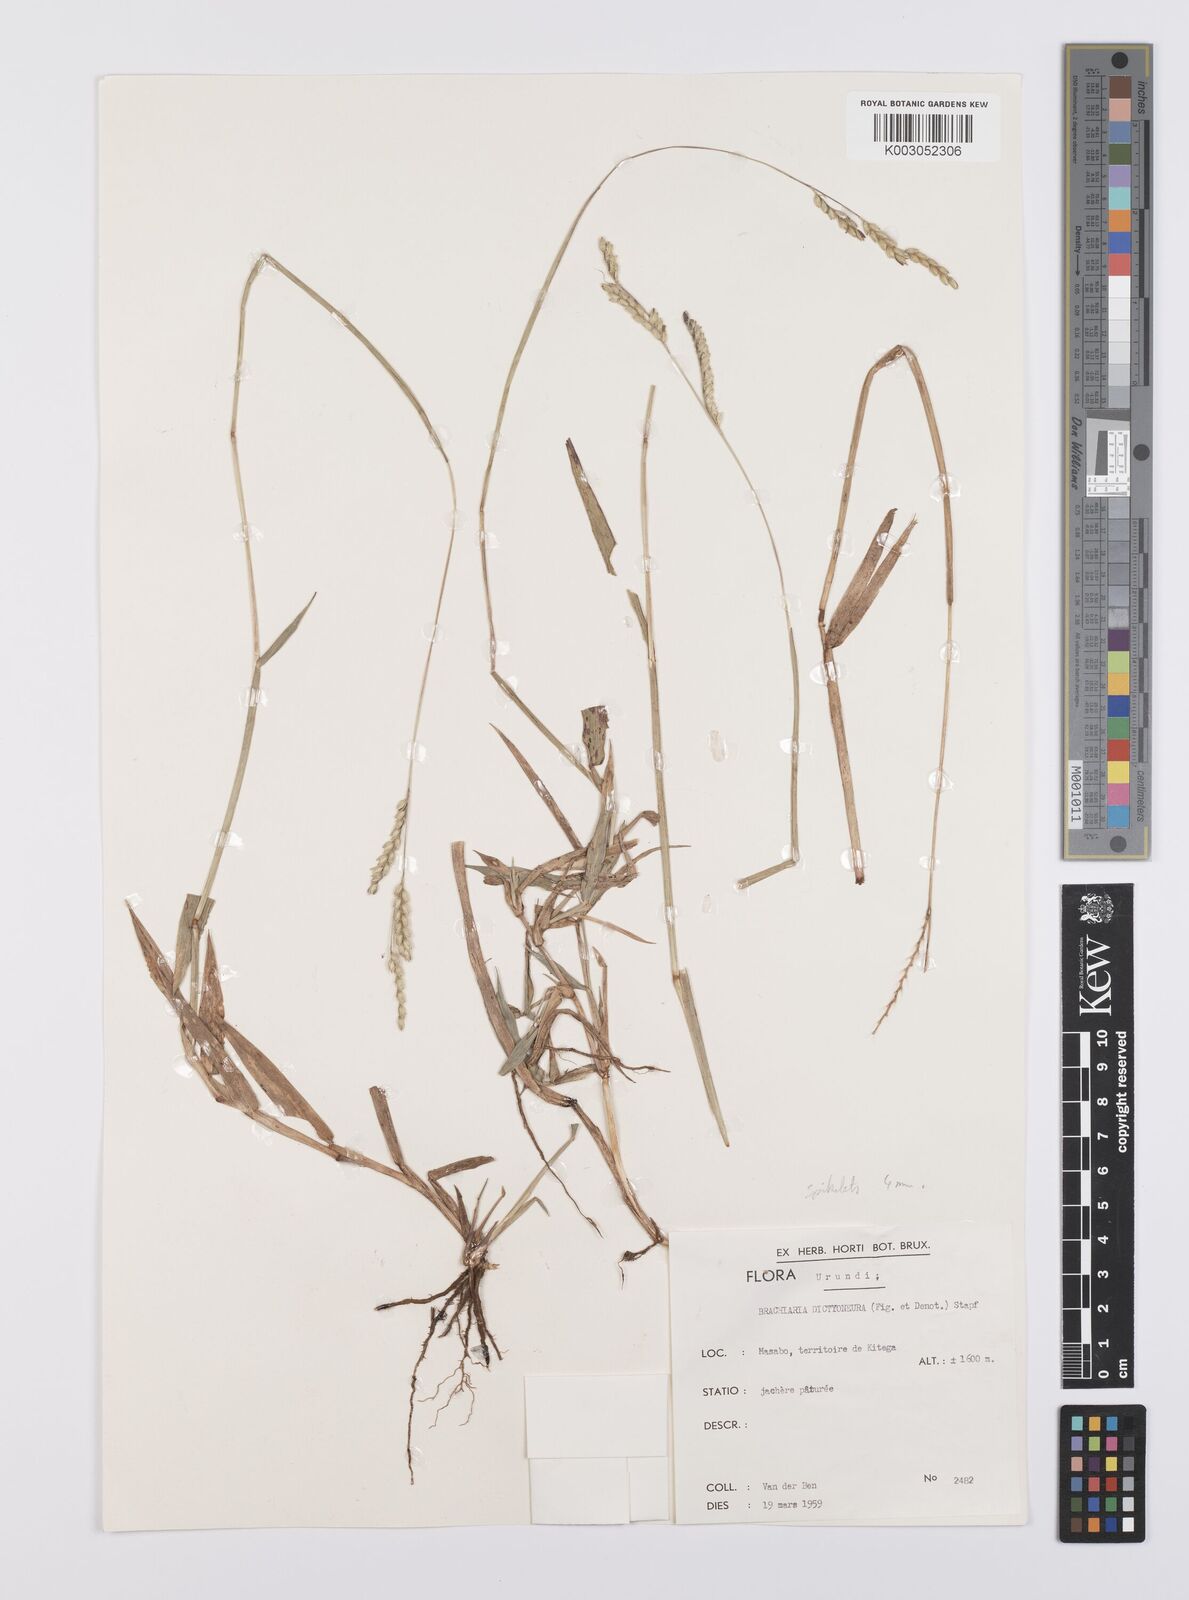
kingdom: Plantae
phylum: Tracheophyta
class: Liliopsida
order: Poales
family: Poaceae
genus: Urochloa
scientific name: Urochloa dictyoneura
